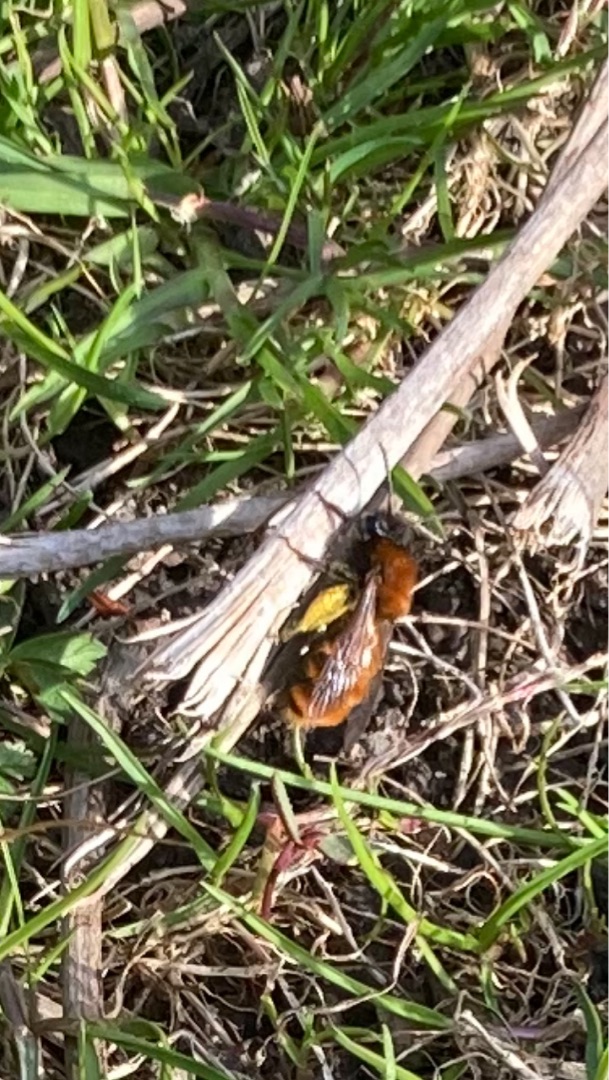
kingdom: Animalia
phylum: Arthropoda
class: Insecta
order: Hymenoptera
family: Andrenidae
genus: Andrena
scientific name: Andrena fulva
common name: Rødpelset jordbi
